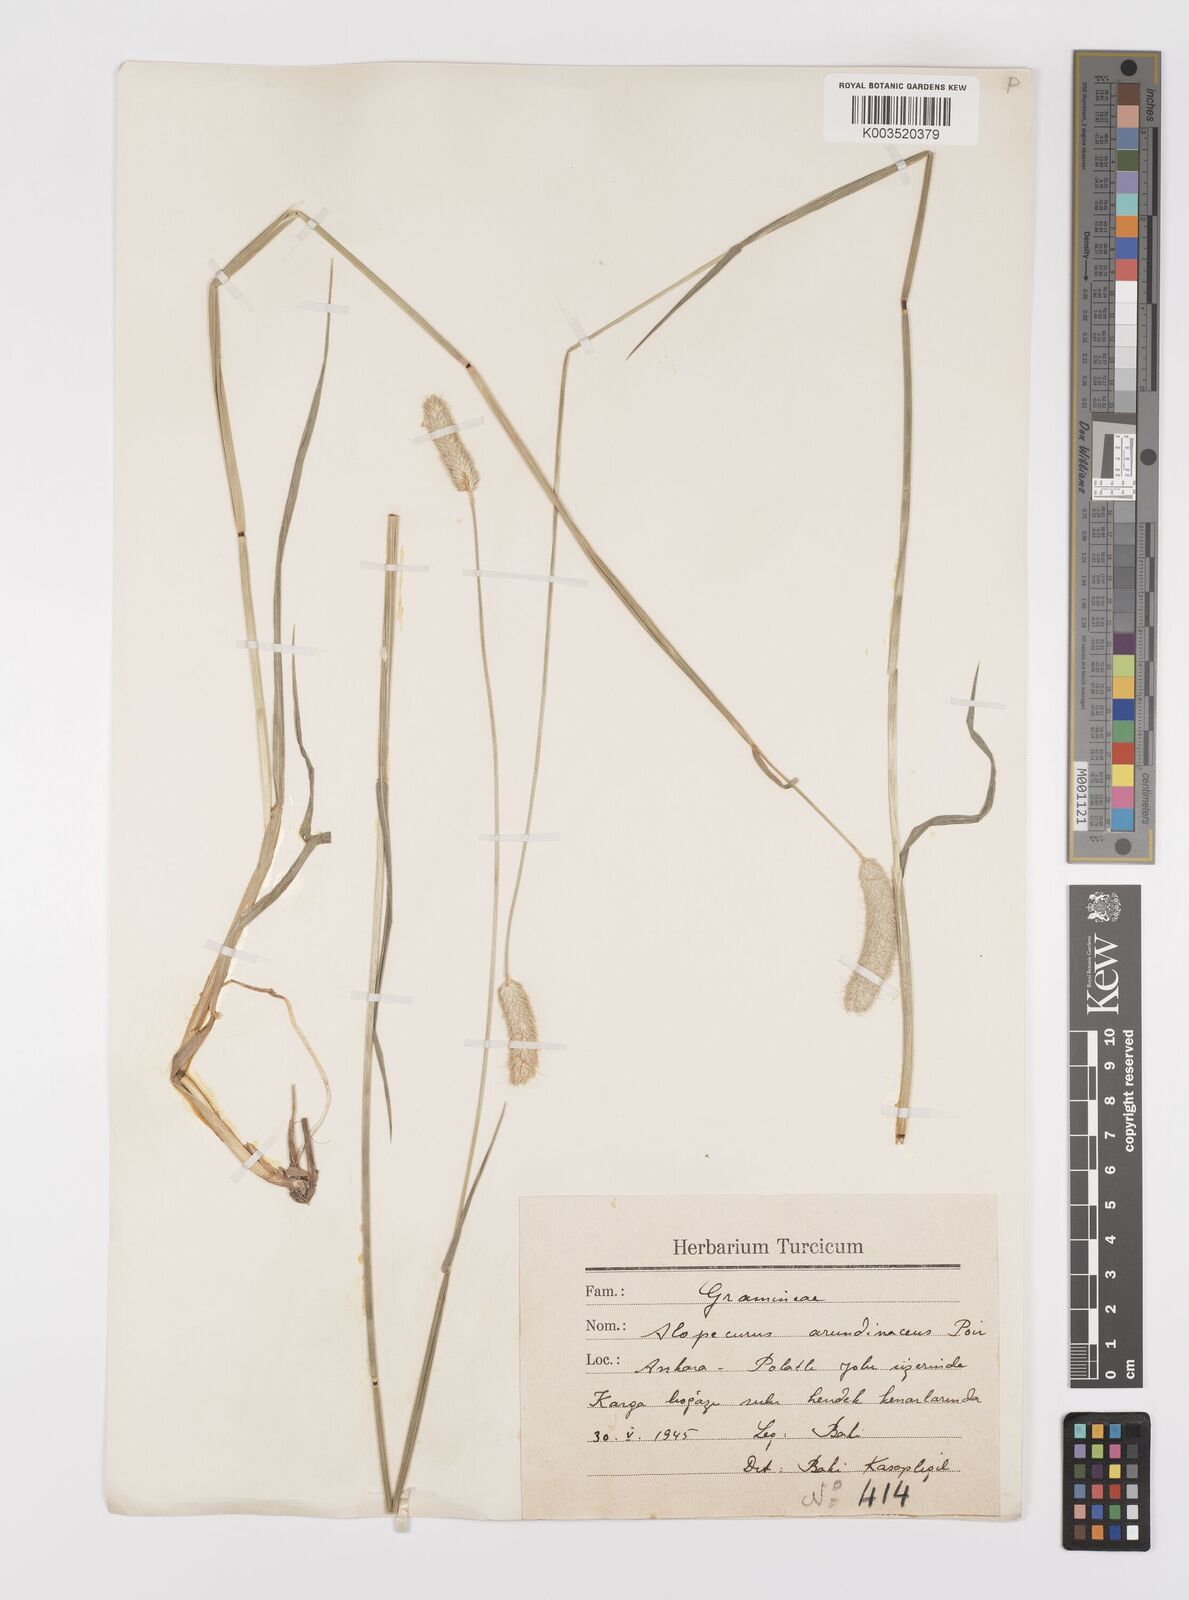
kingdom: Plantae
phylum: Tracheophyta
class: Liliopsida
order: Poales
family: Poaceae
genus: Alopecurus
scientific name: Alopecurus arundinaceus
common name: Creeping meadow foxtail
